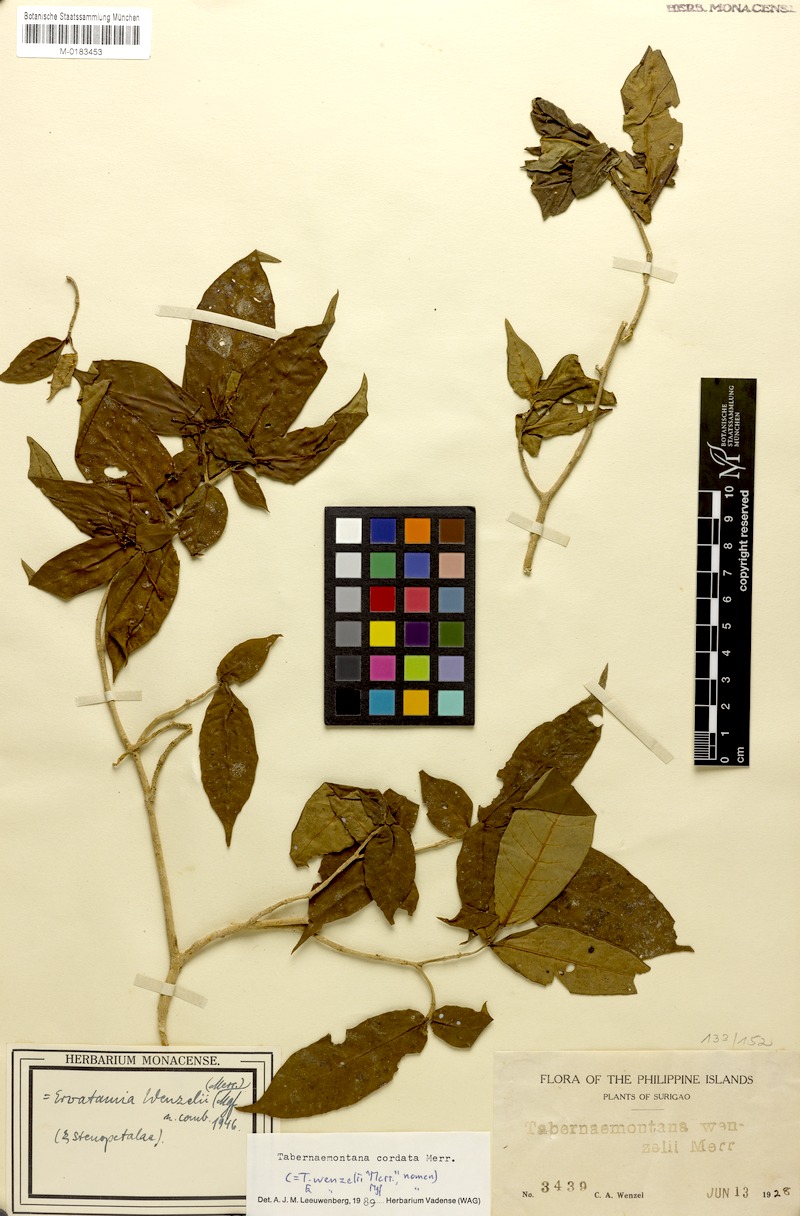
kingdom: Plantae
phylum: Tracheophyta
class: Magnoliopsida
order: Gentianales
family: Apocynaceae
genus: Tabernaemontana
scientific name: Tabernaemontana cordata
